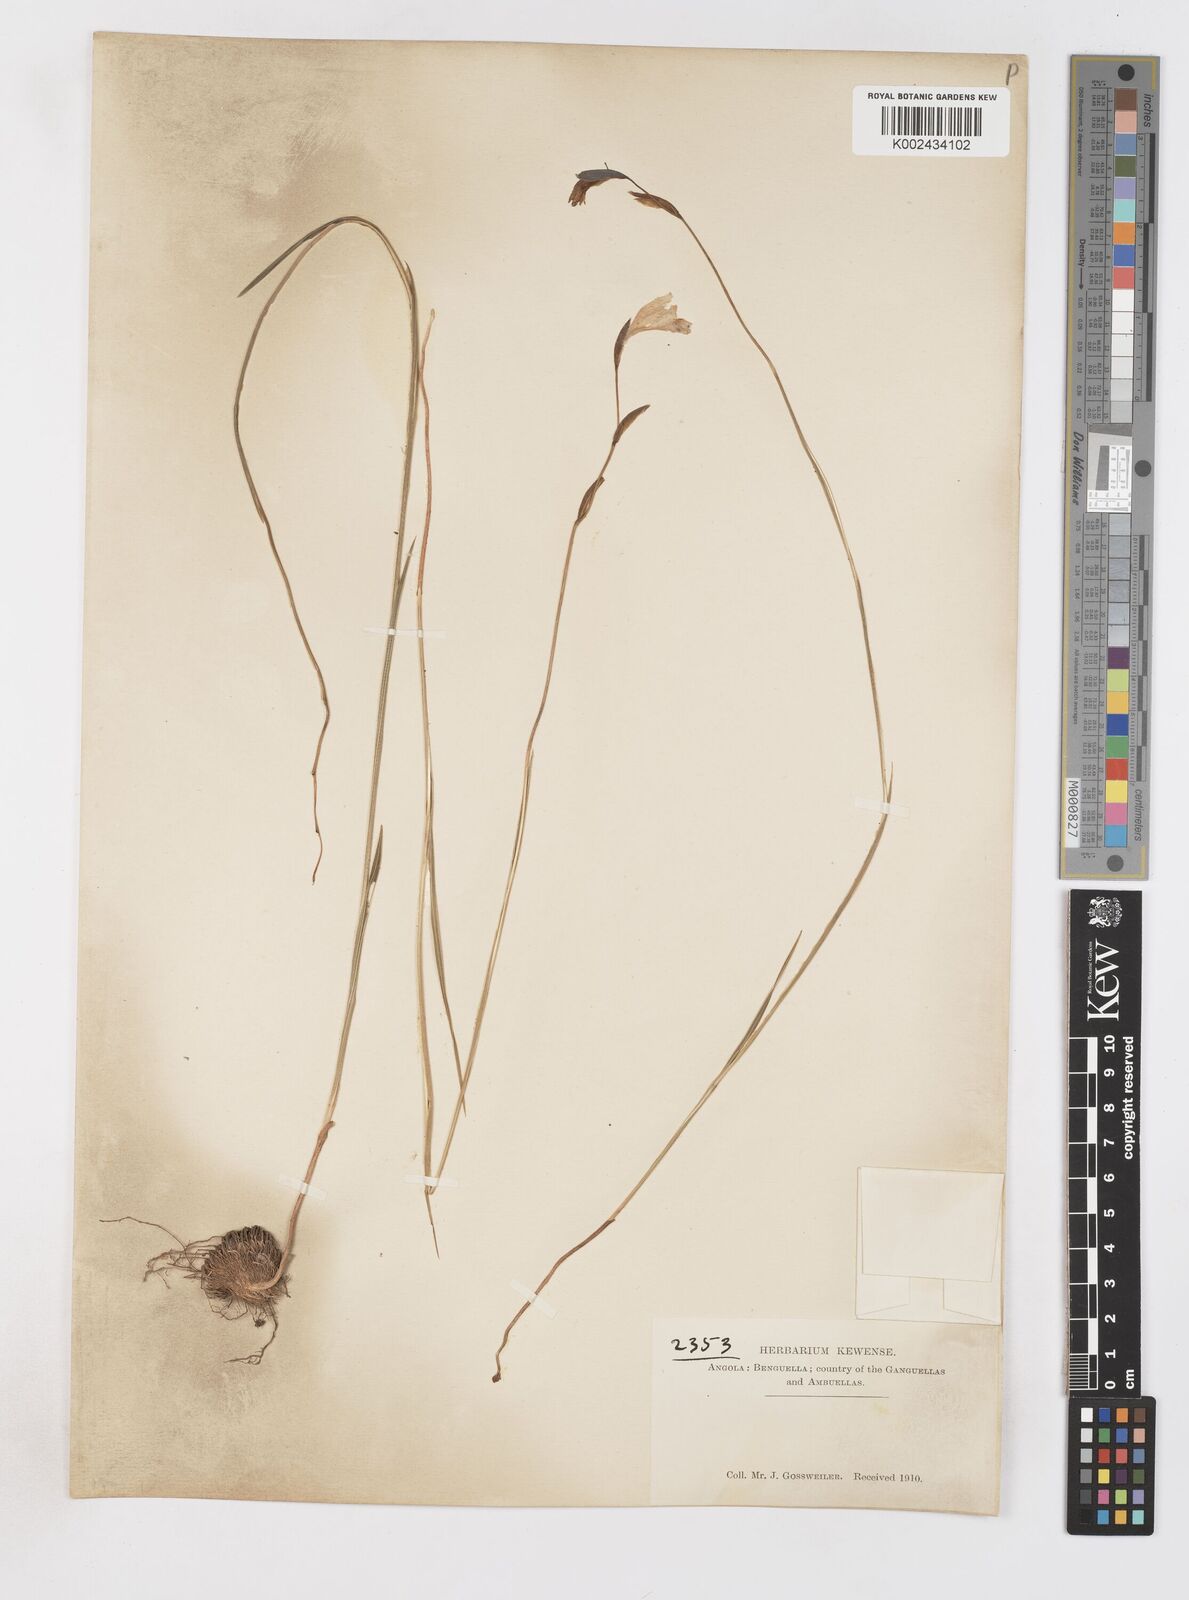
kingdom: Plantae
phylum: Tracheophyta
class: Liliopsida
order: Asparagales
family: Iridaceae
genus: Gladiolus
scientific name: Gladiolus atropurpureus
